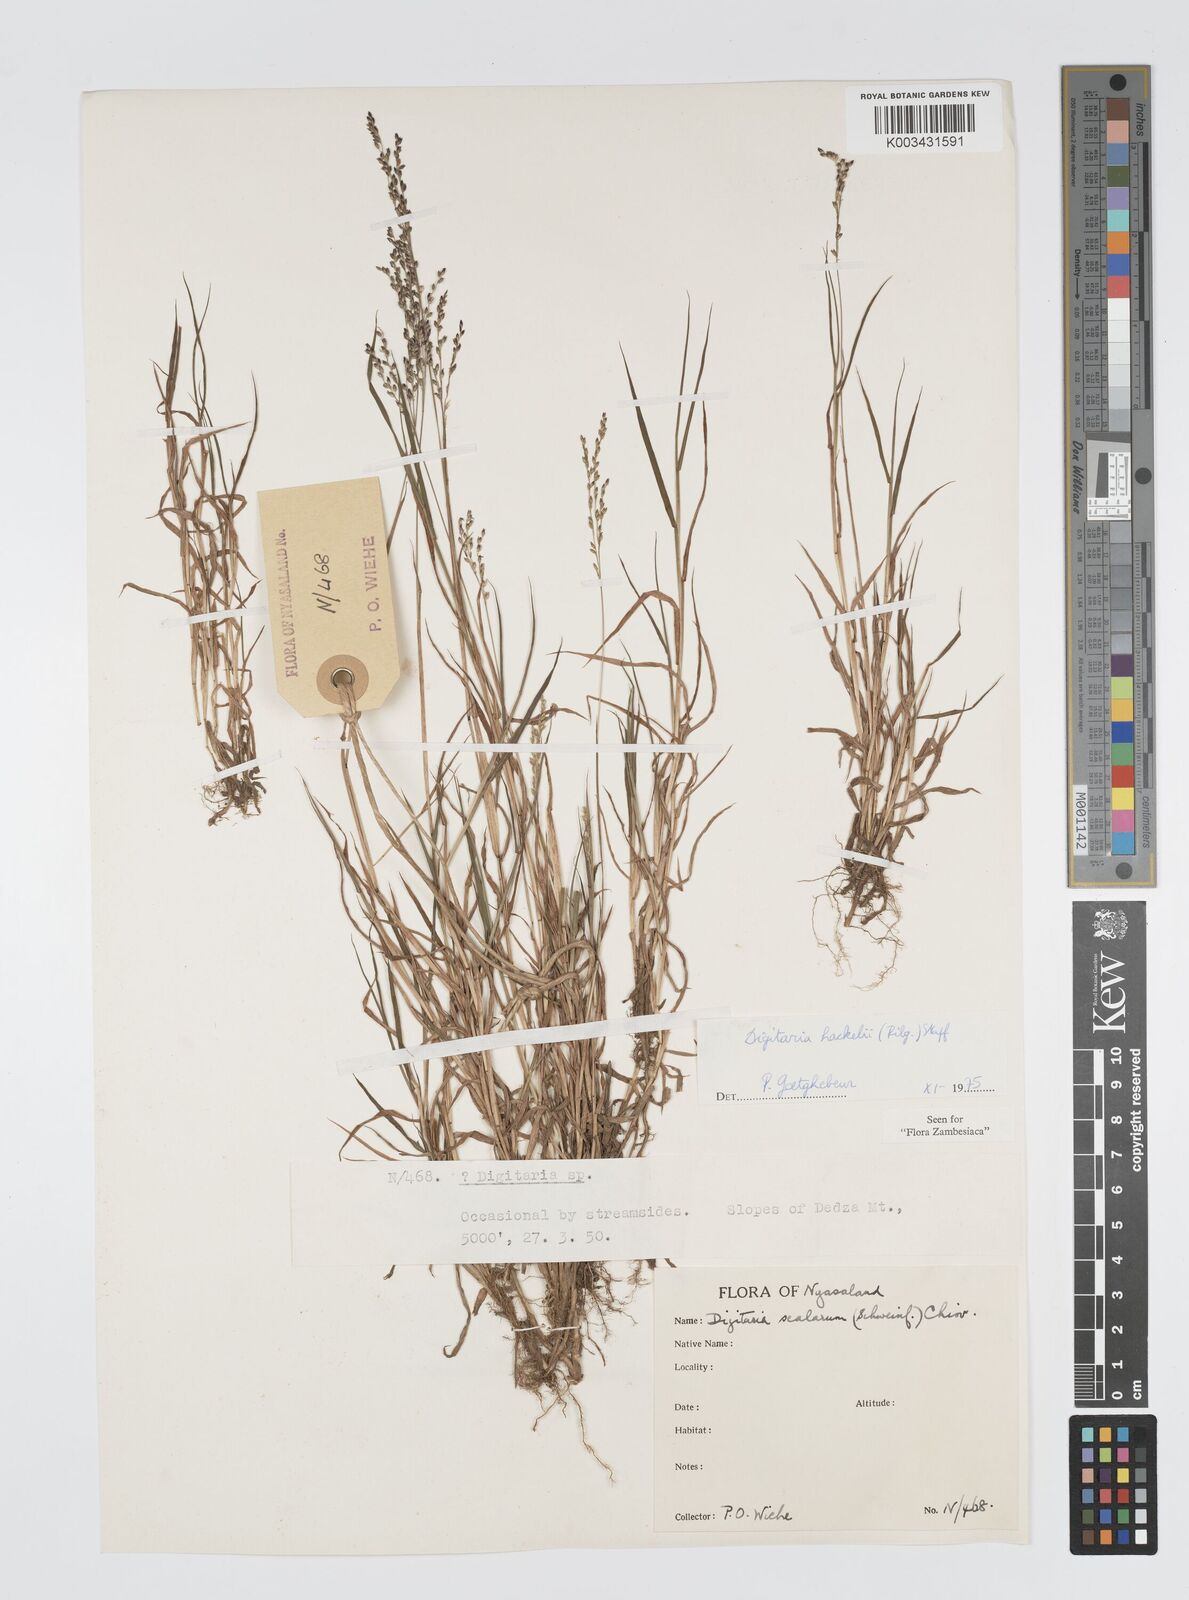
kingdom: Plantae
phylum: Tracheophyta
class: Liliopsida
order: Poales
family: Poaceae
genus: Digitaria
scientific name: Digitaria abyssinica
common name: African couchgrass
